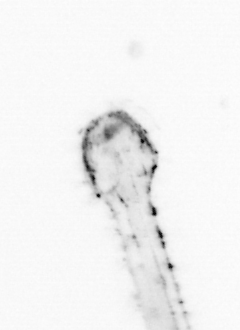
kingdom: Animalia
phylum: Chaetognatha
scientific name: Chaetognatha
